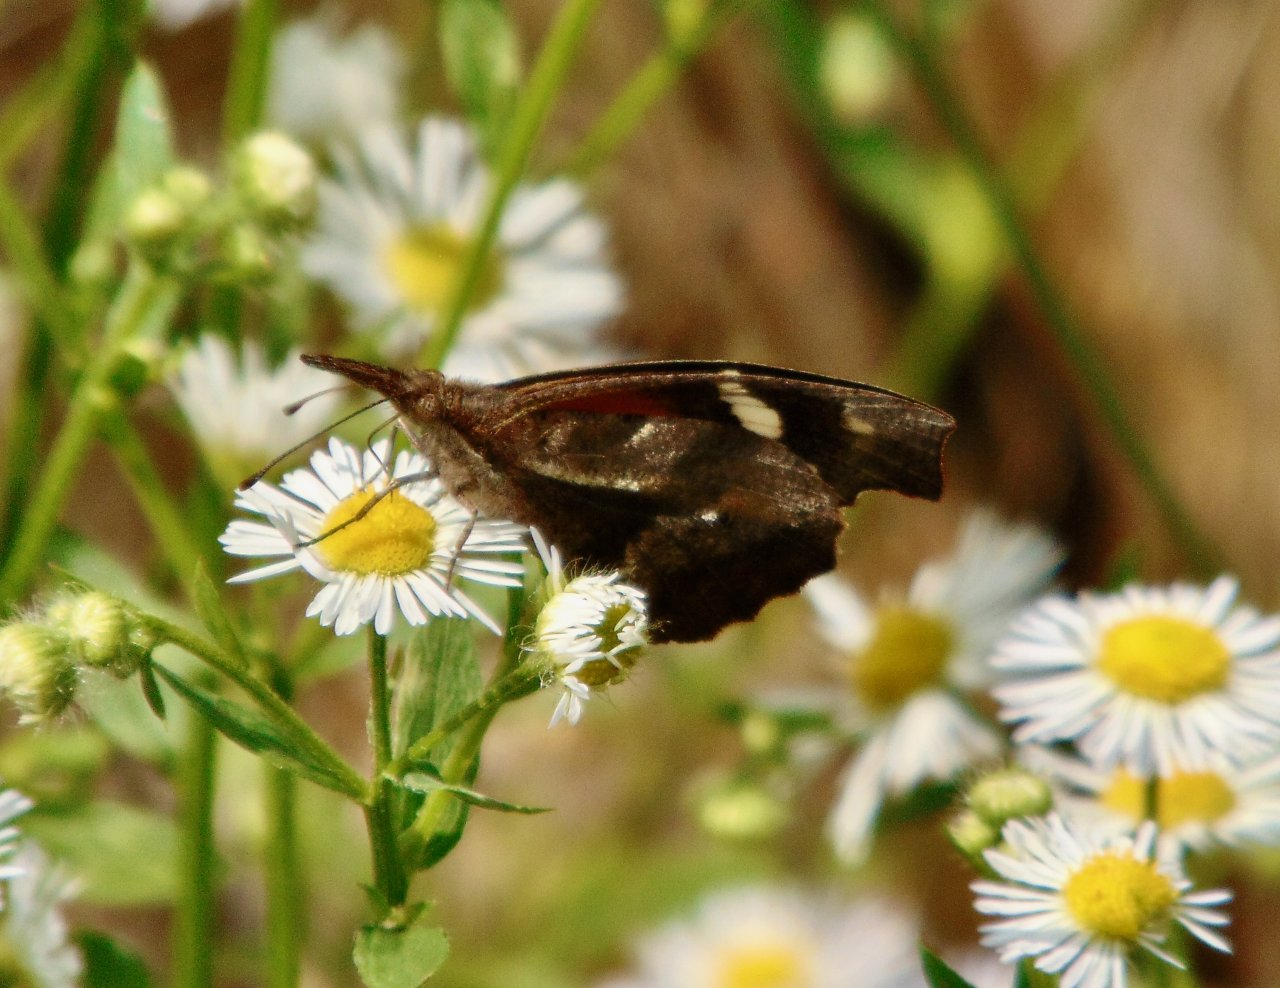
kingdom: Animalia
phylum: Arthropoda
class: Insecta
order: Lepidoptera
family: Nymphalidae
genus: Libytheana
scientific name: Libytheana carinenta
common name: American Snout
